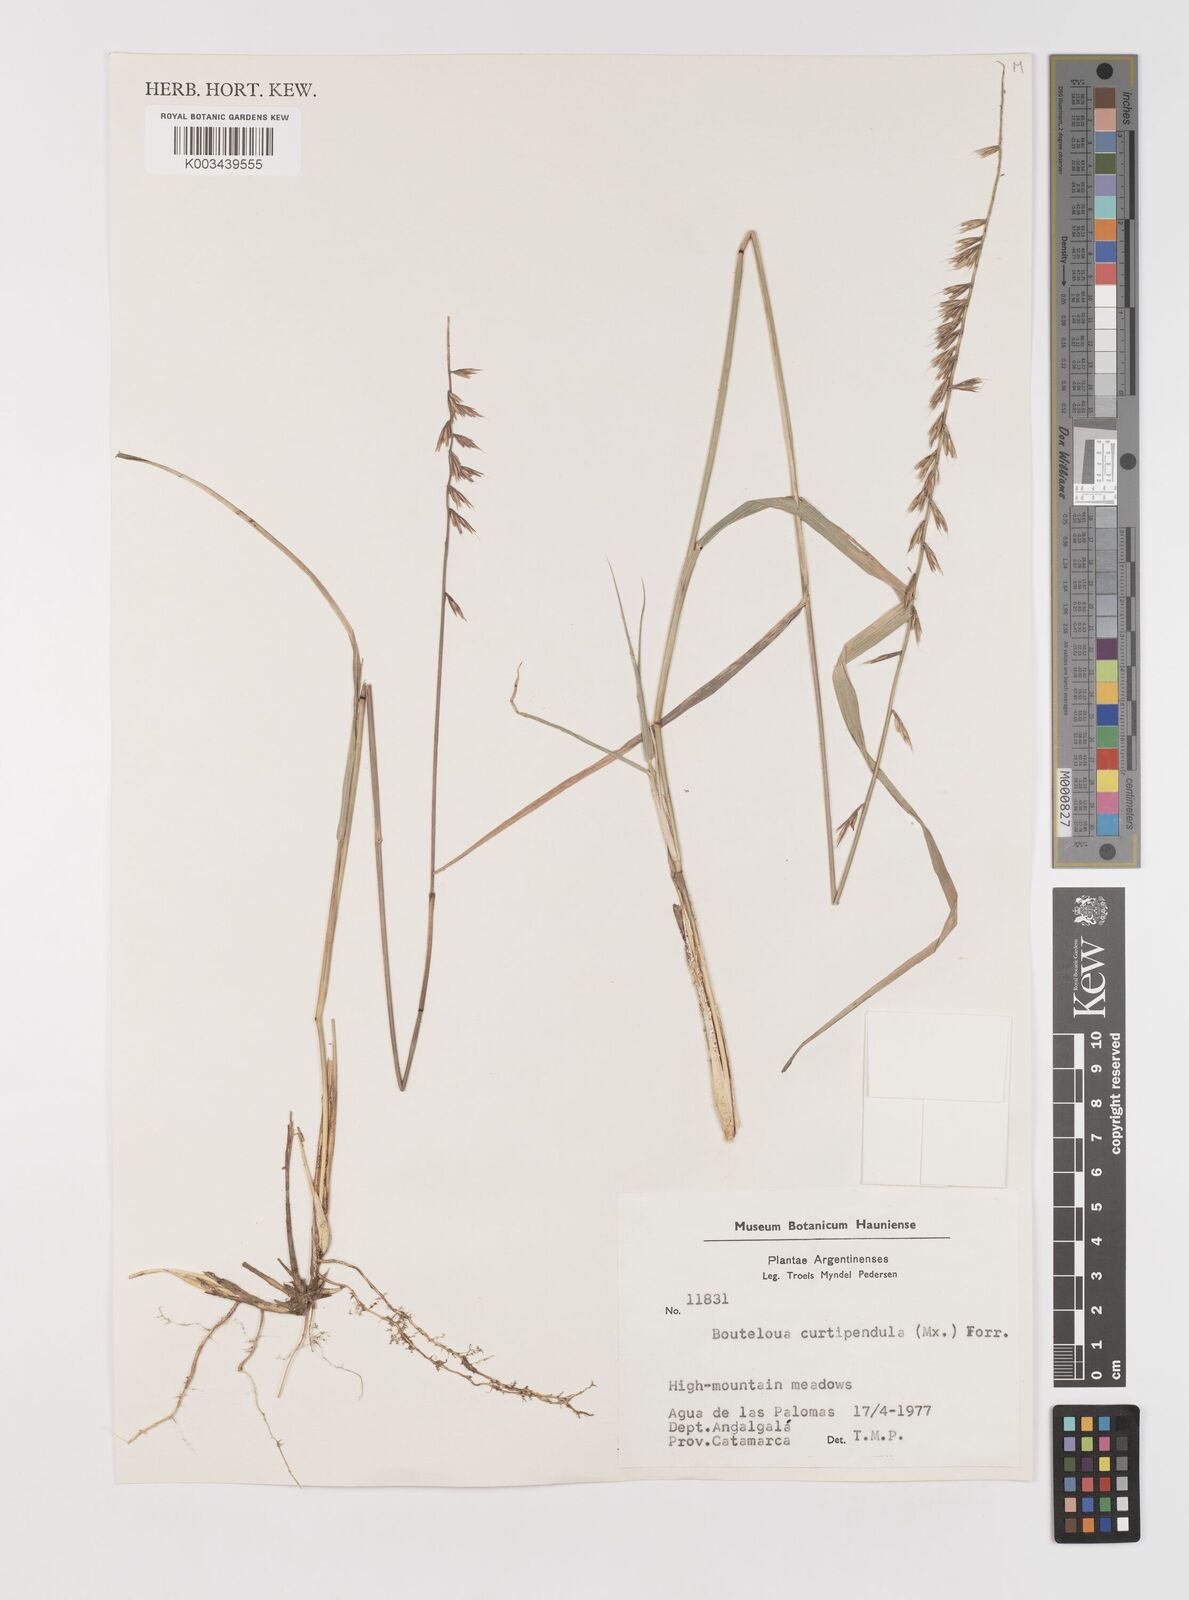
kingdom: Plantae
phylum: Tracheophyta
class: Liliopsida
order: Poales
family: Poaceae
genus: Bouteloua
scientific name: Bouteloua curtipendula
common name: Side-oats grama
